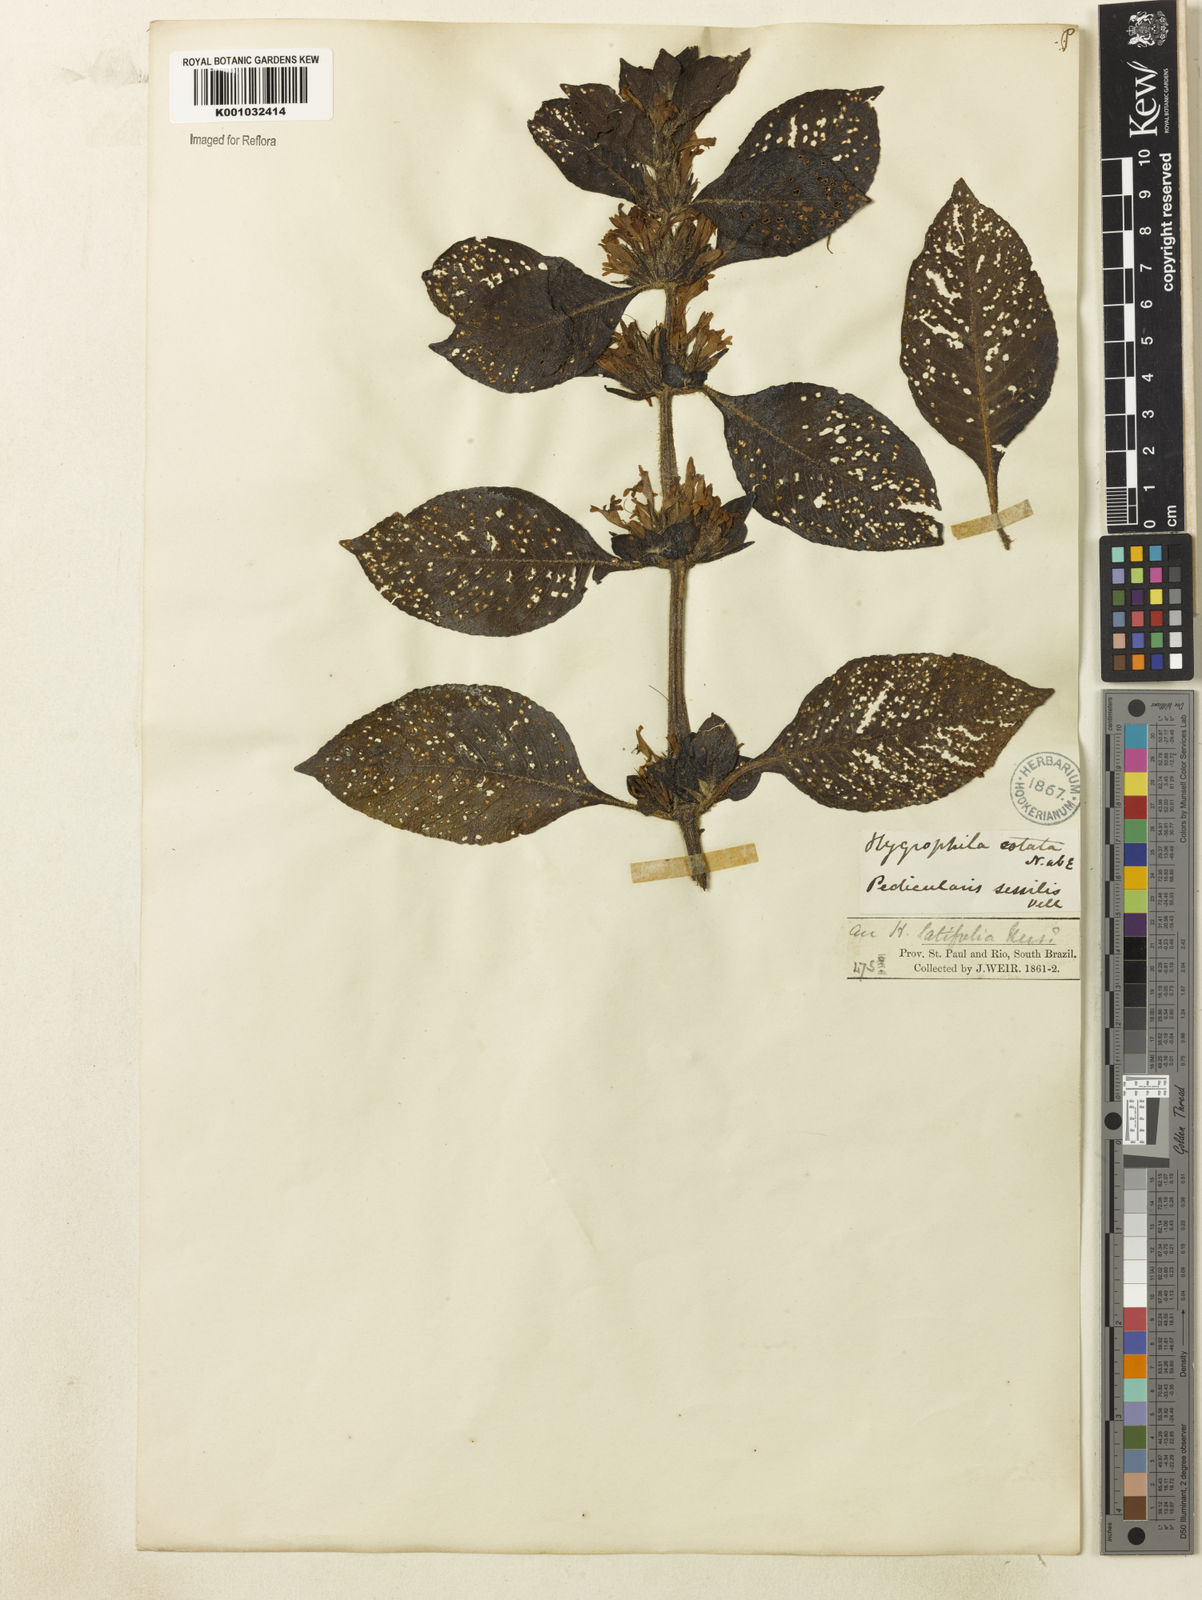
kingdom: Plantae
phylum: Tracheophyta
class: Magnoliopsida
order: Lamiales
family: Acanthaceae
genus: Hygrophila
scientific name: Hygrophila costata
